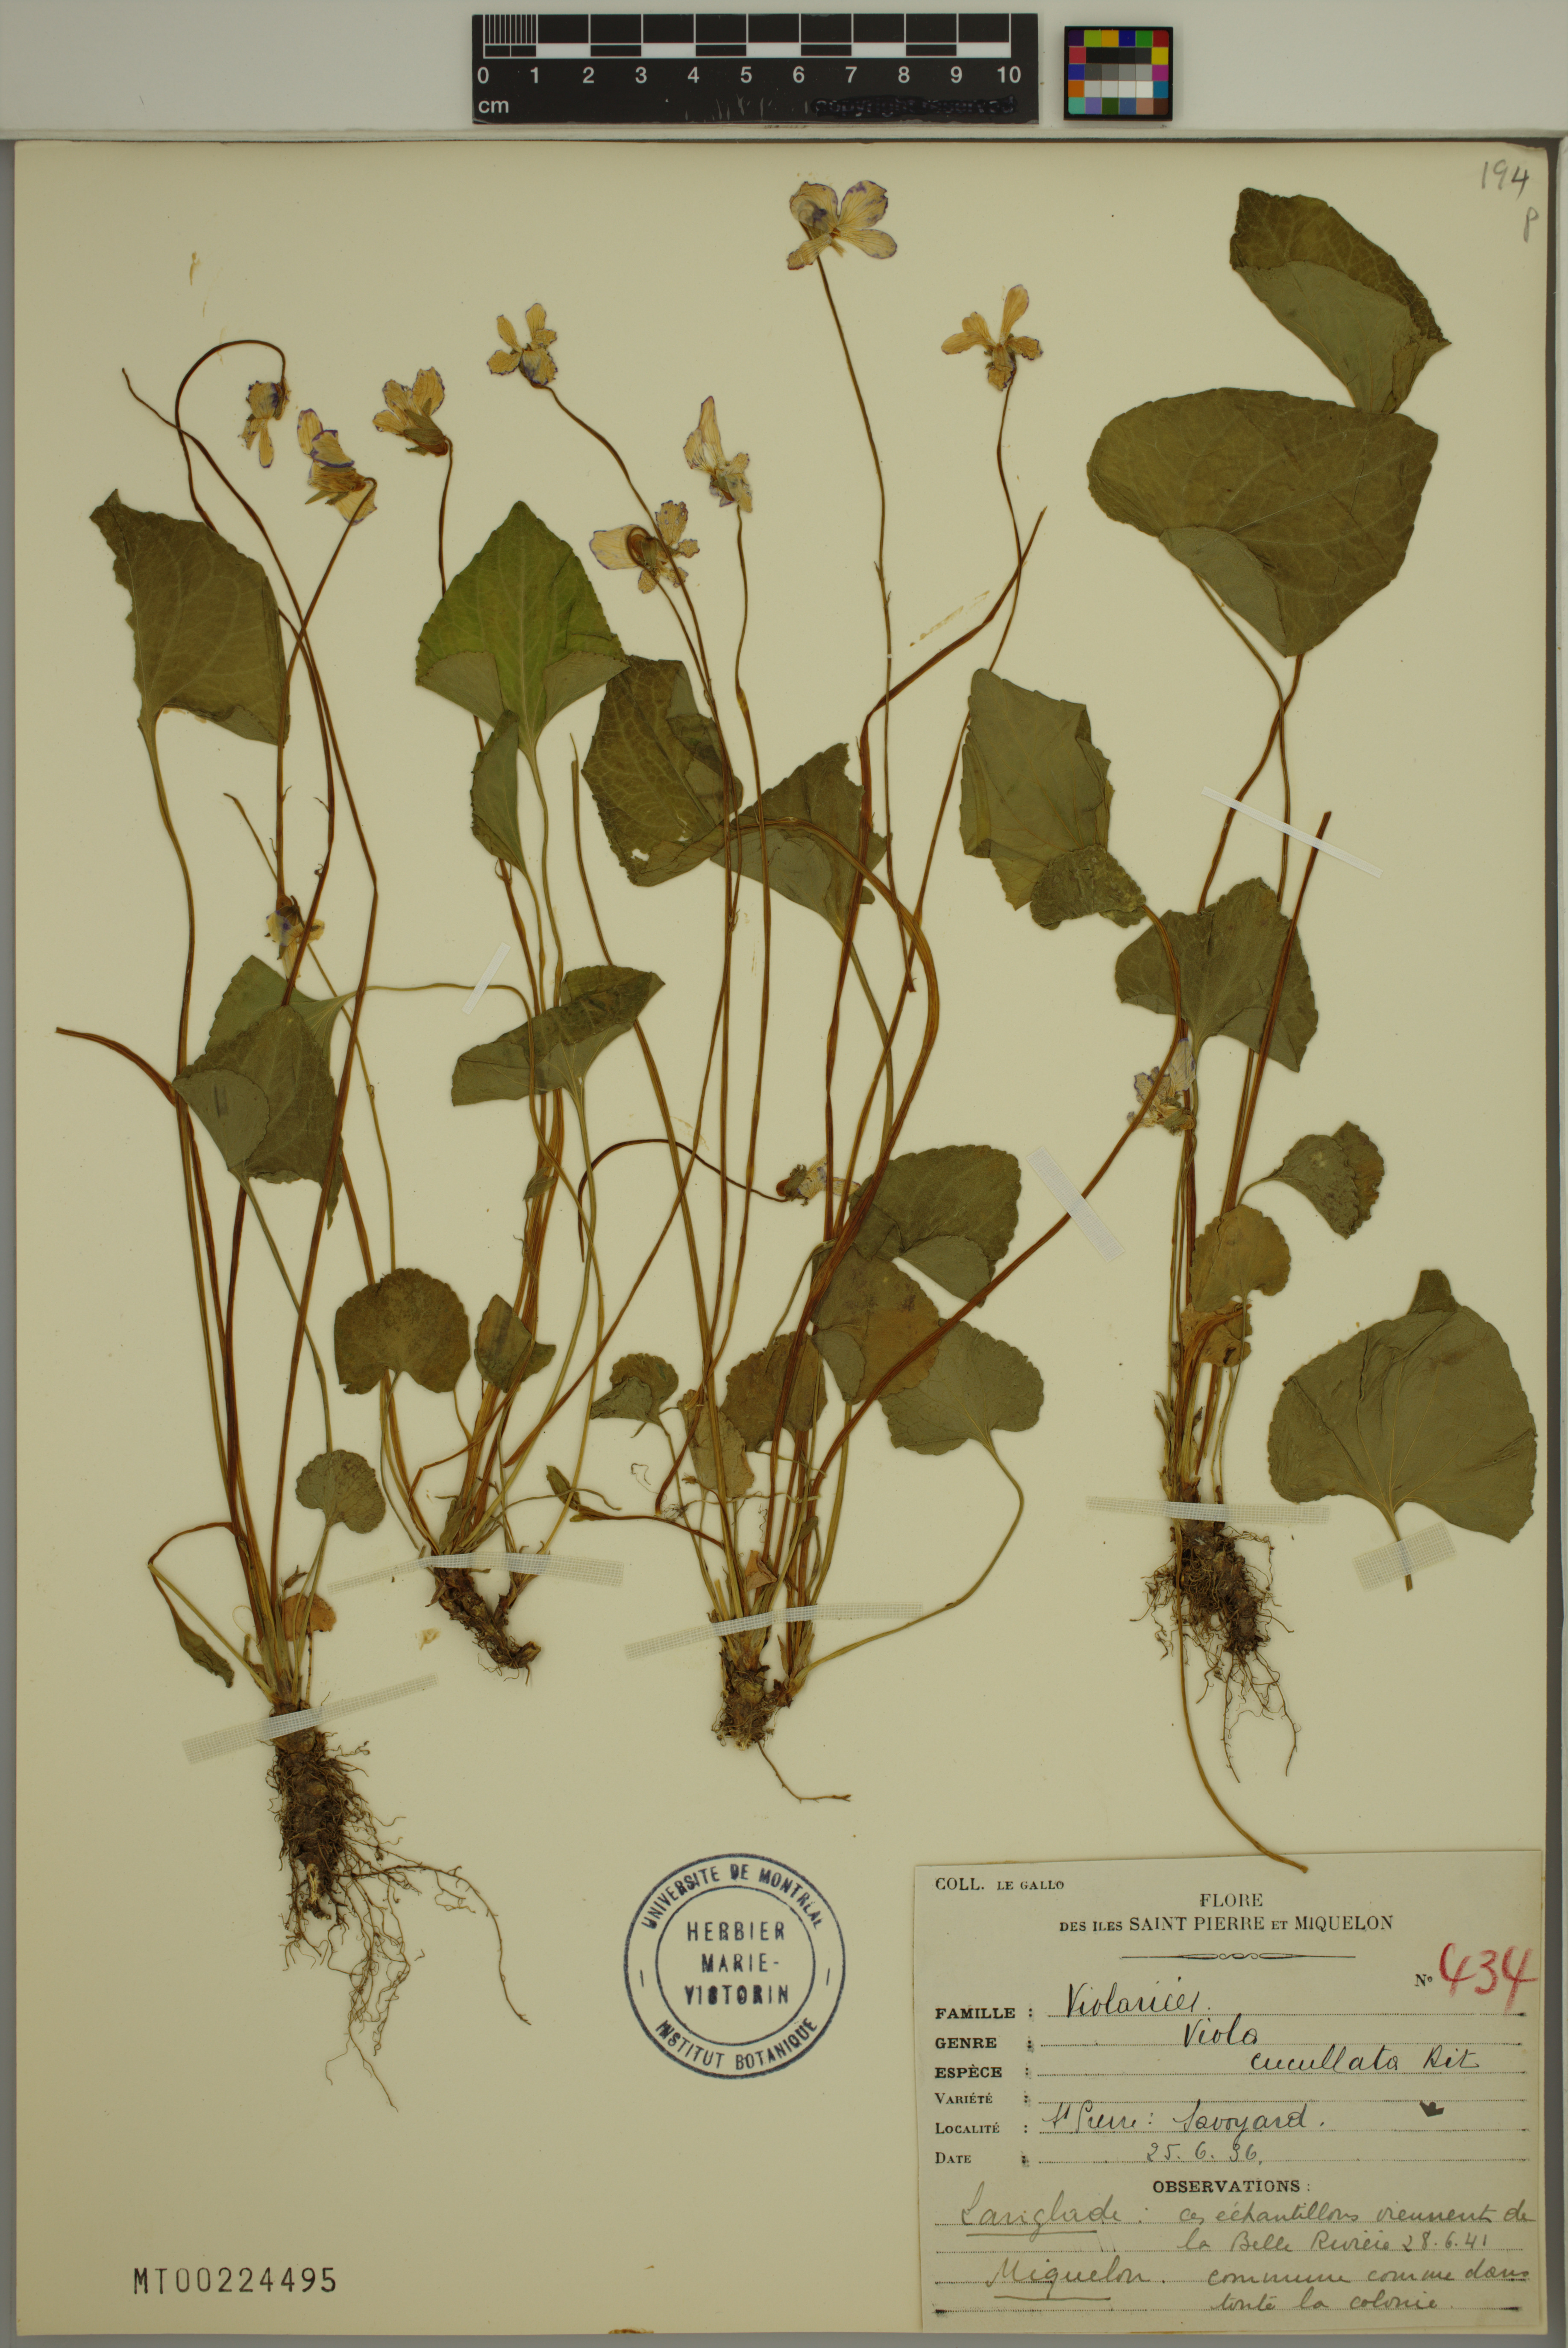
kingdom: Plantae
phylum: Tracheophyta
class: Magnoliopsida
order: Malpighiales
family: Violaceae
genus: Viola
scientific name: Viola cucullata
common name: Marsh blue violet
